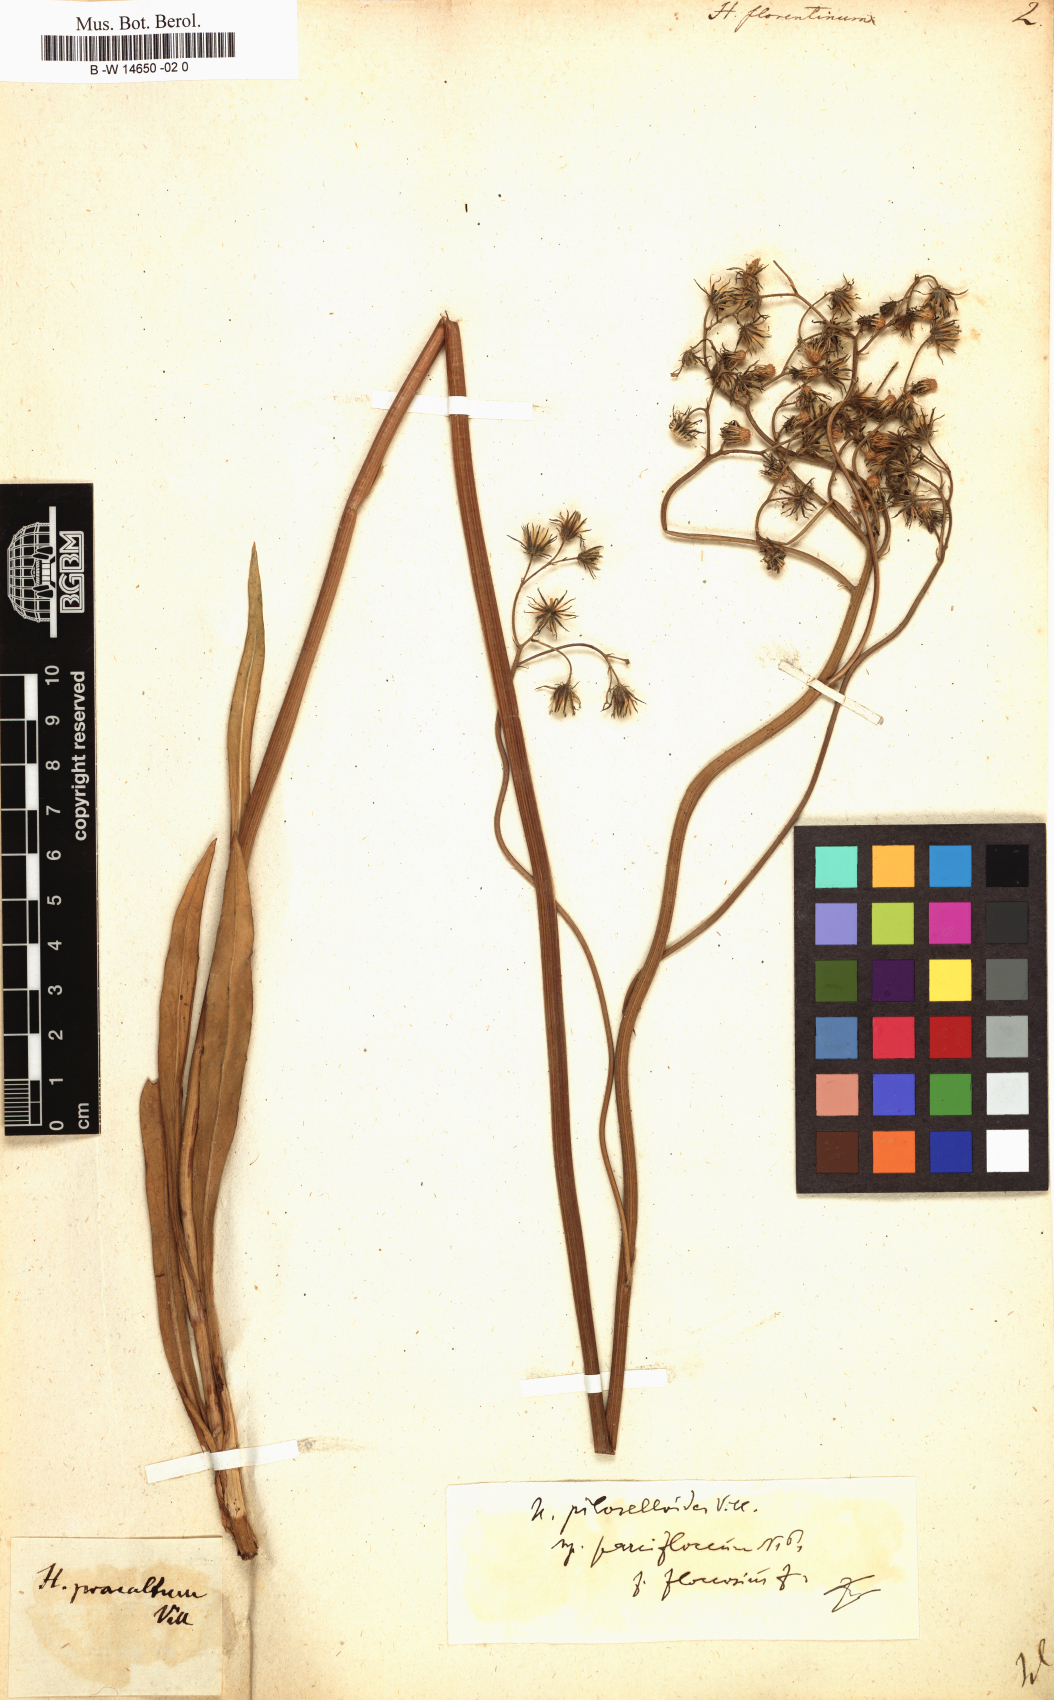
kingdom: Plantae
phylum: Tracheophyta
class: Magnoliopsida
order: Asterales
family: Asteraceae
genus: Hieracium
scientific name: Hieracium florentinum
